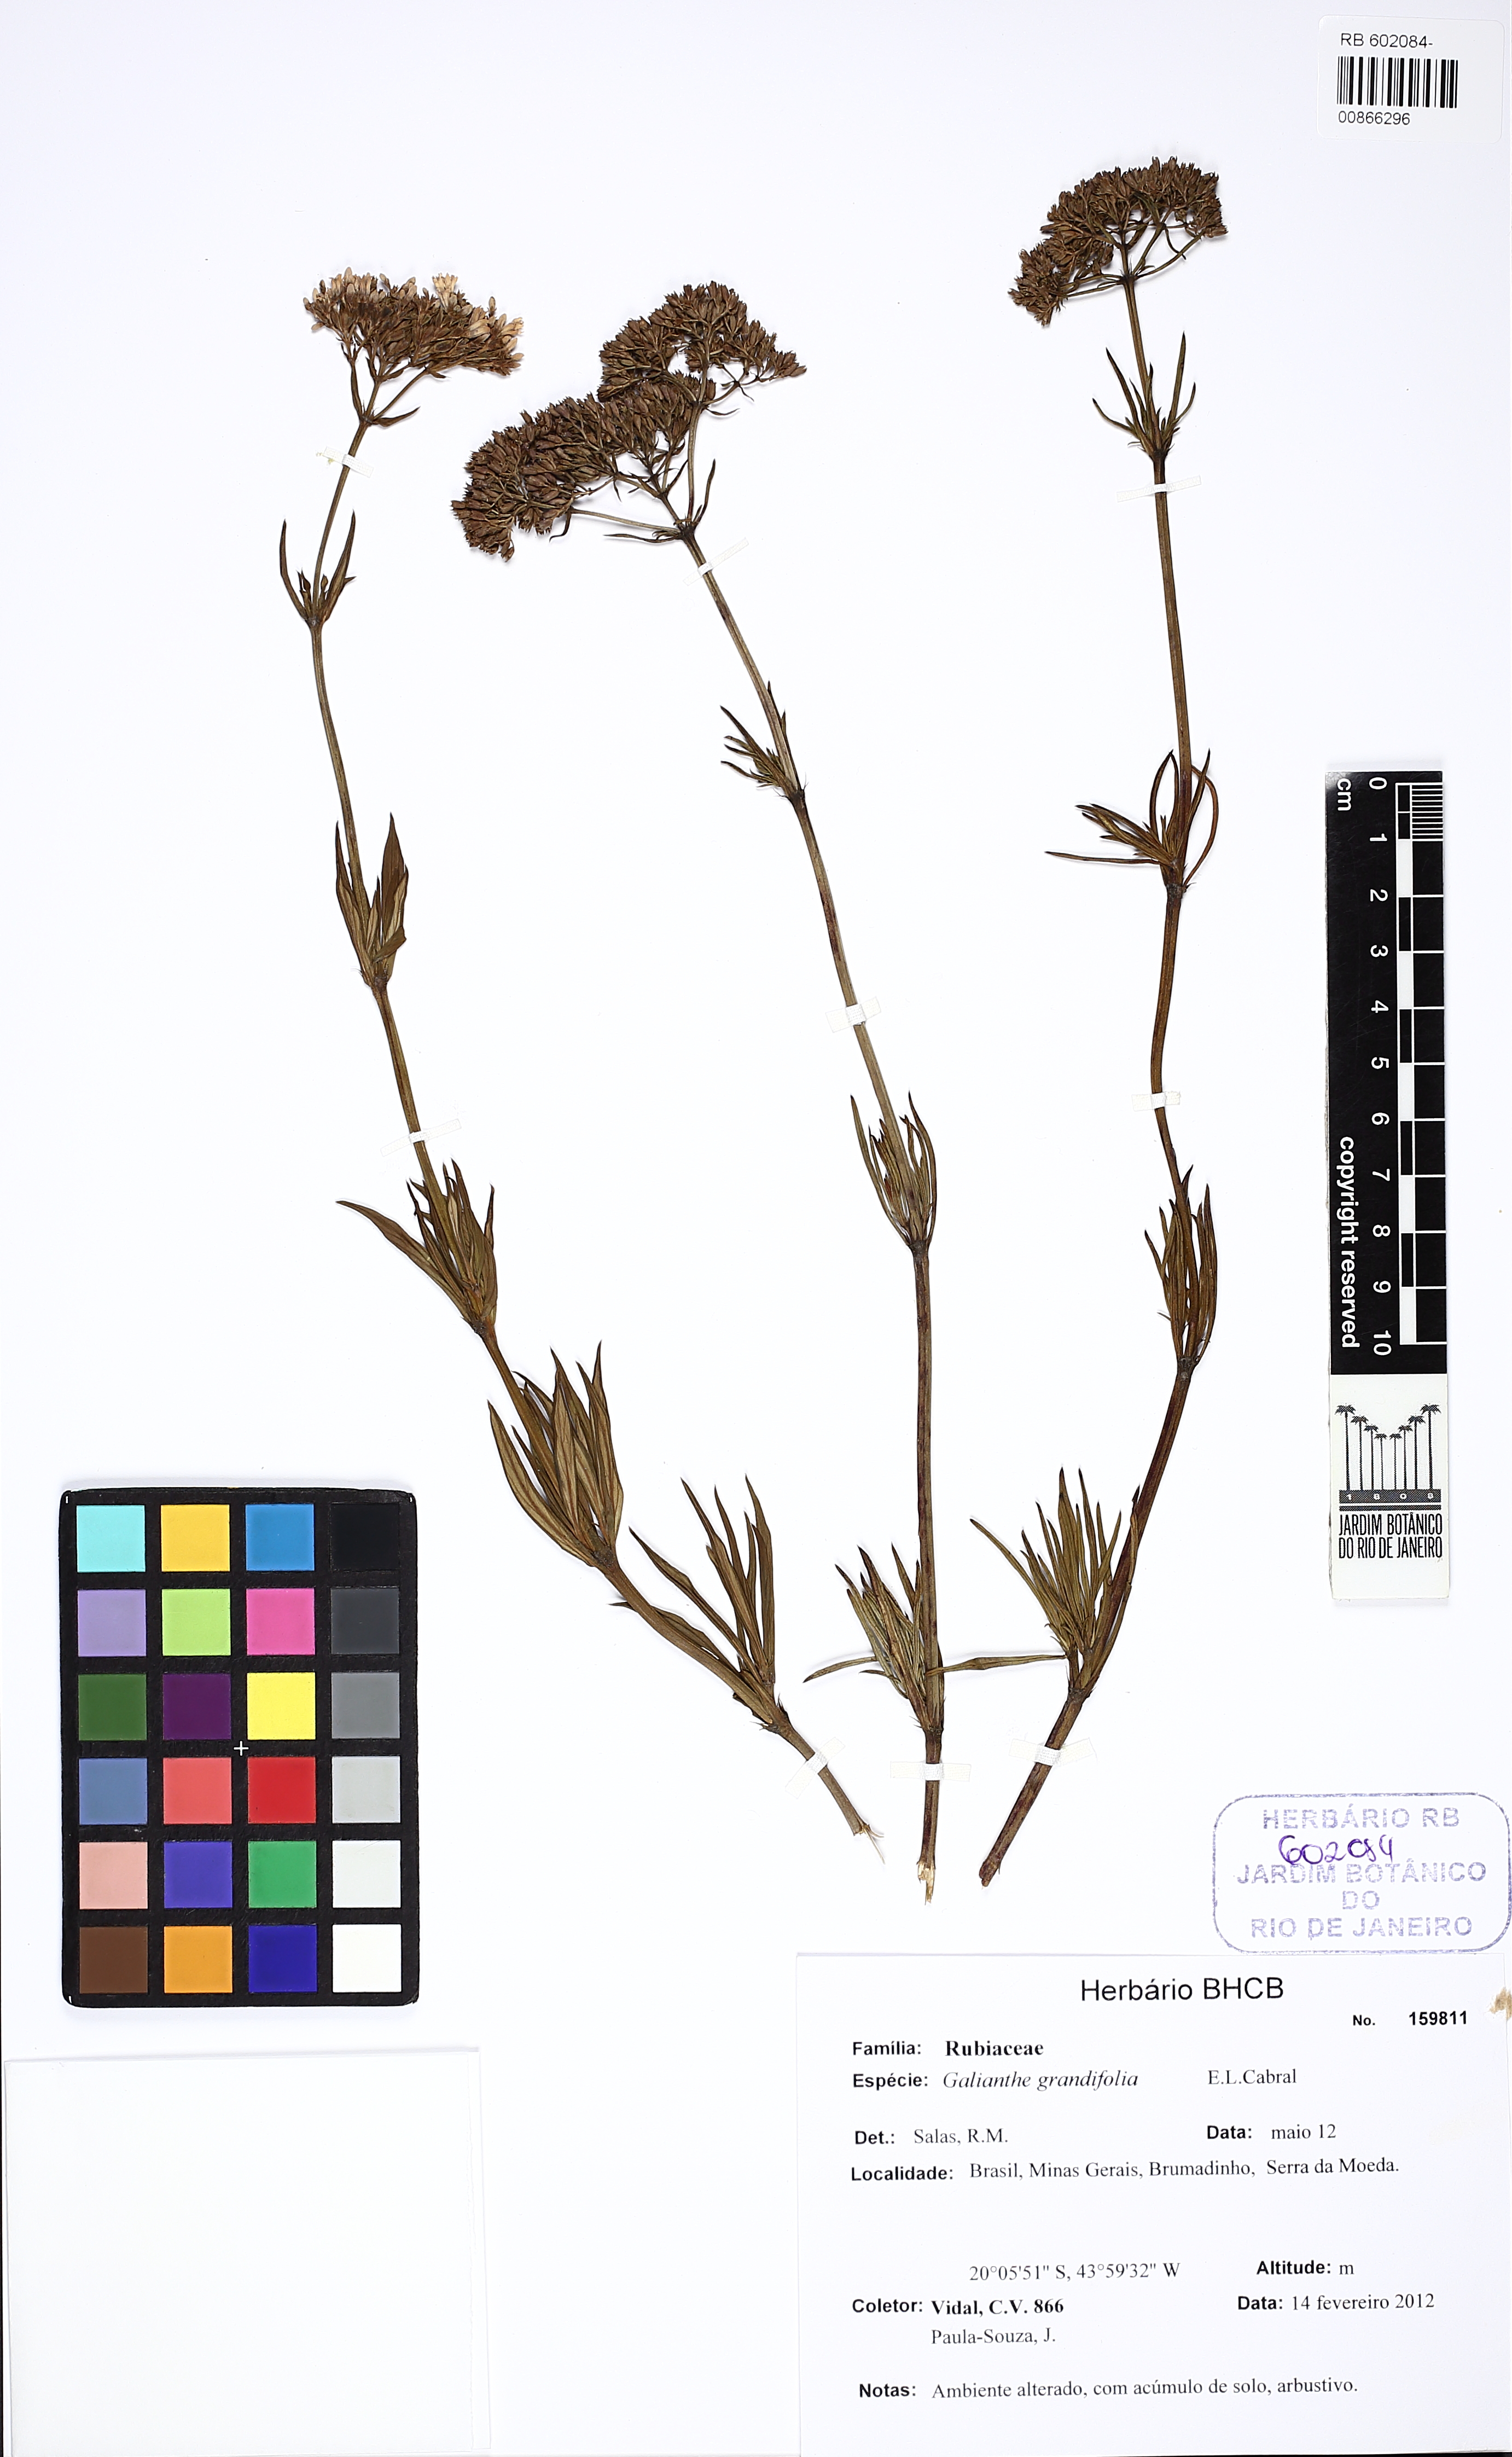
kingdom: Plantae
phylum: Tracheophyta
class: Magnoliopsida
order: Gentianales
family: Rubiaceae
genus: Galianthe
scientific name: Galianthe angustifolia
